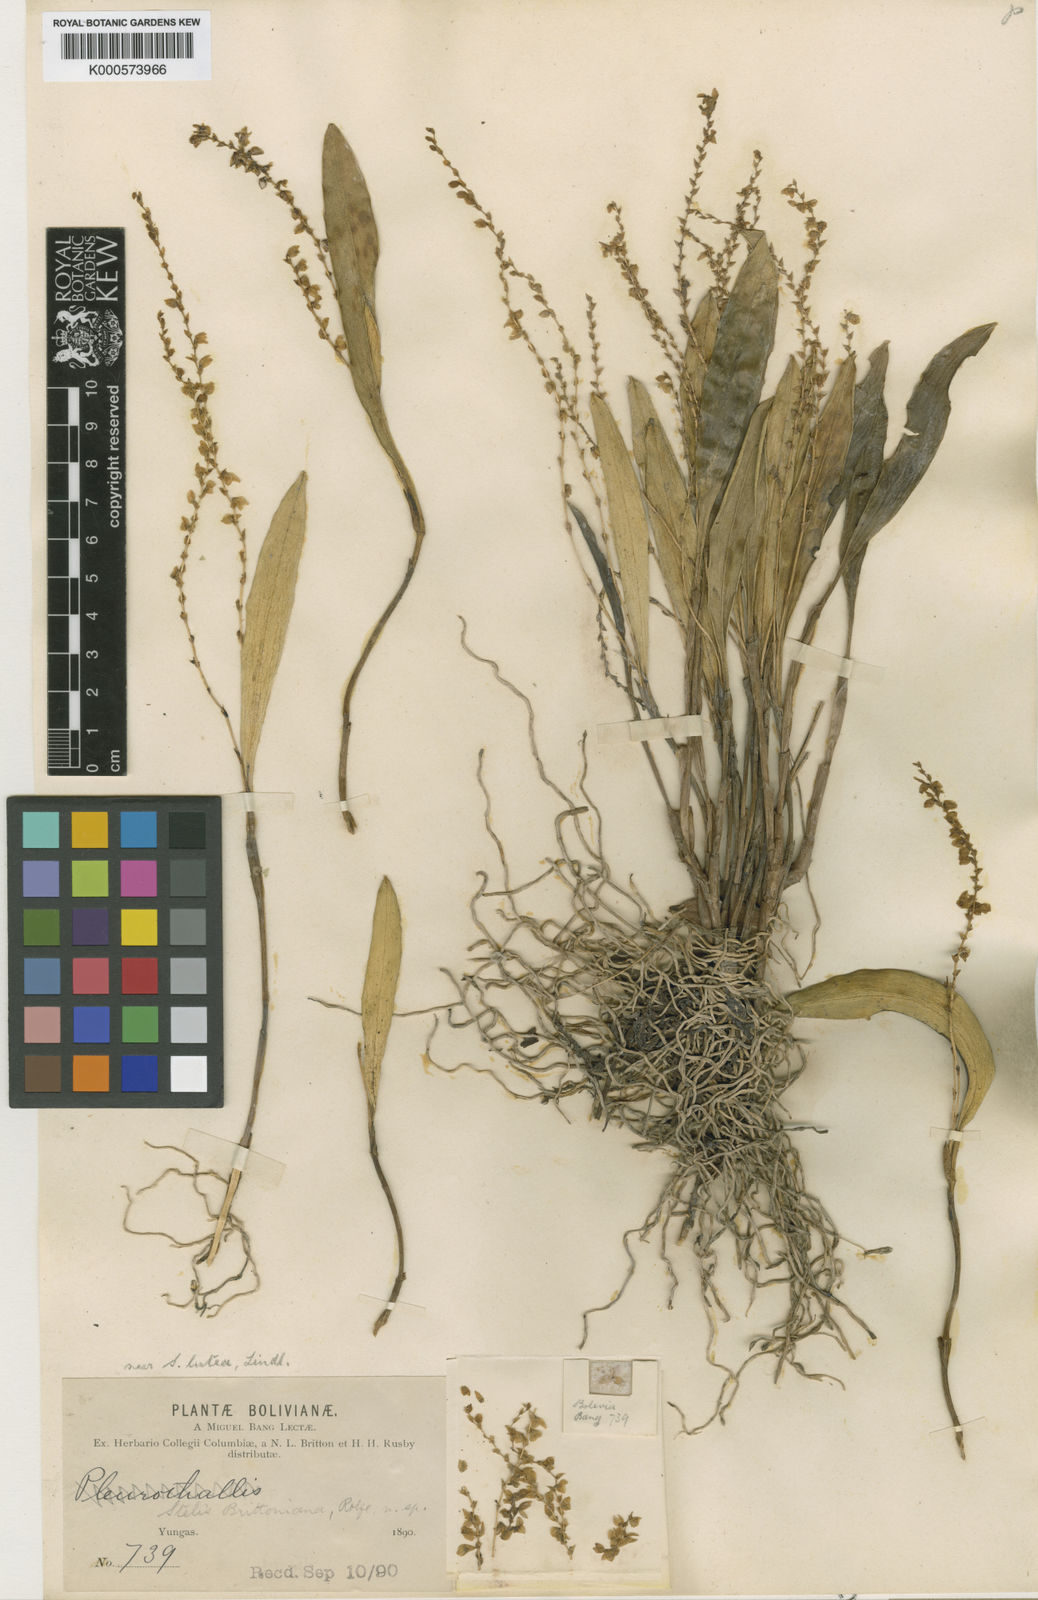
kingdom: Plantae
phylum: Tracheophyta
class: Liliopsida
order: Asparagales
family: Orchidaceae
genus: Stelis
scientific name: Stelis tenuicaulis
